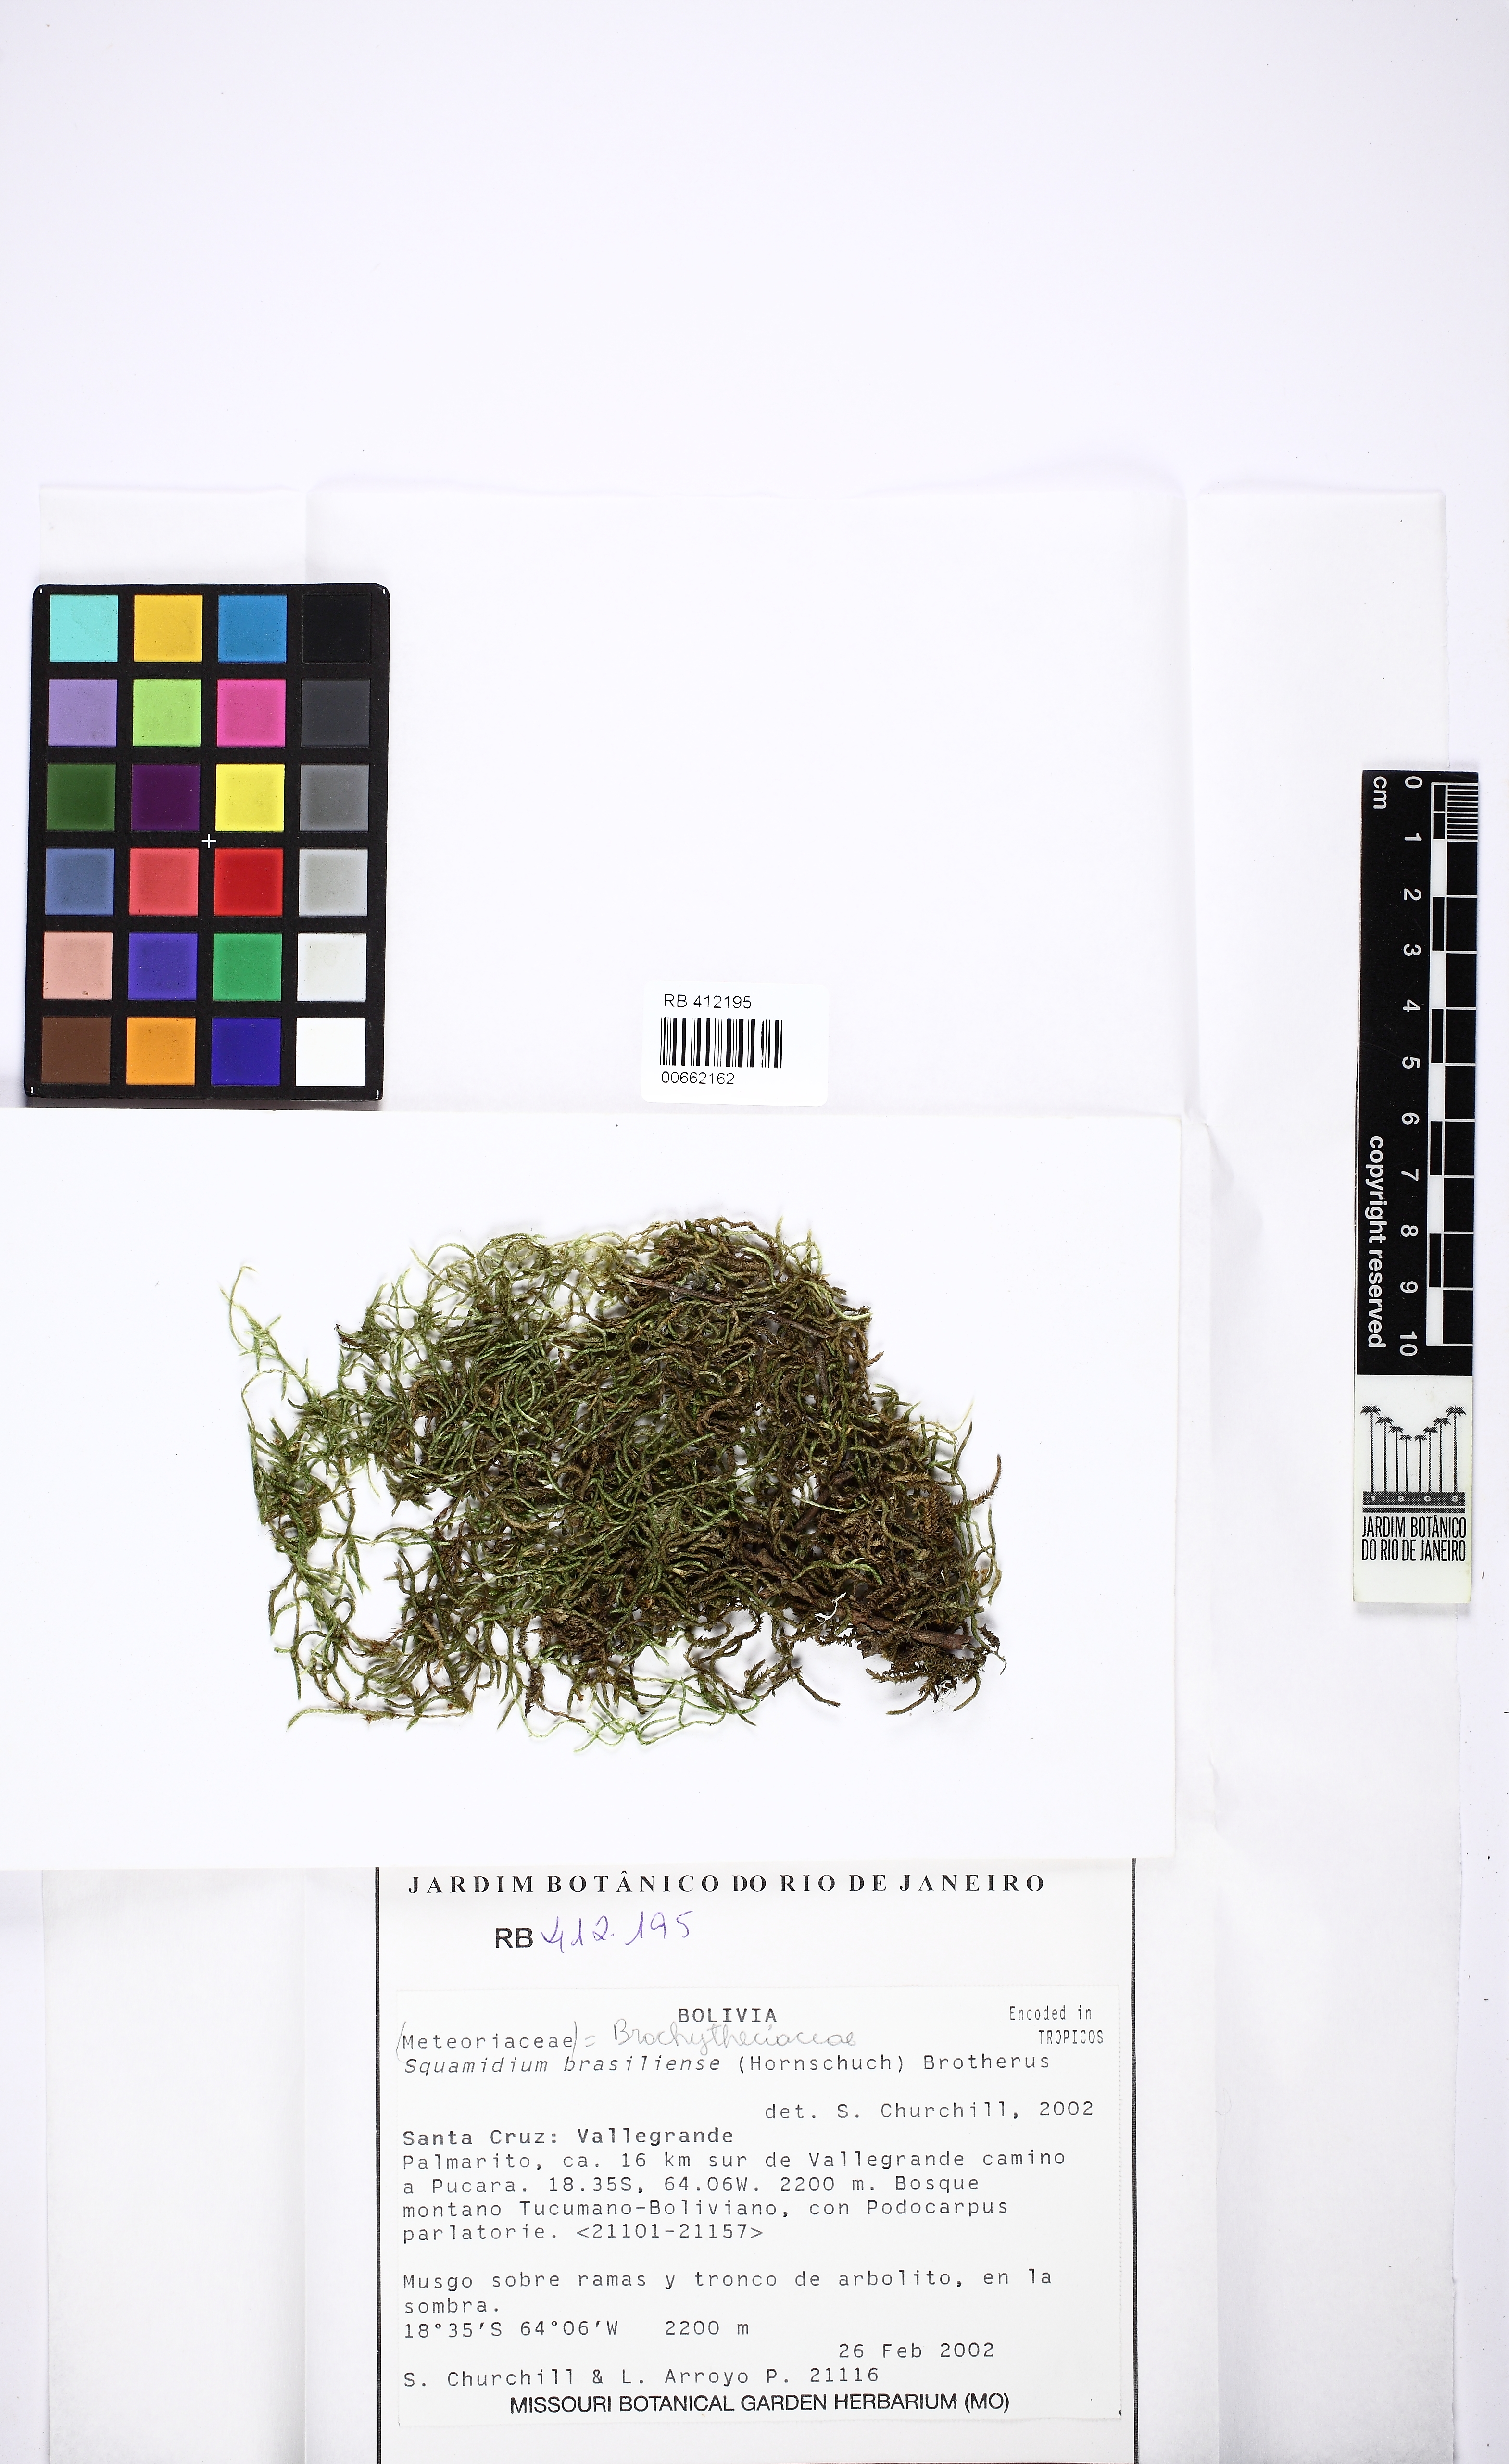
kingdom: Plantae
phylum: Bryophyta
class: Bryopsida
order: Hypnales
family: Brachytheciaceae
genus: Squamidium
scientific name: Squamidium brasiliense
